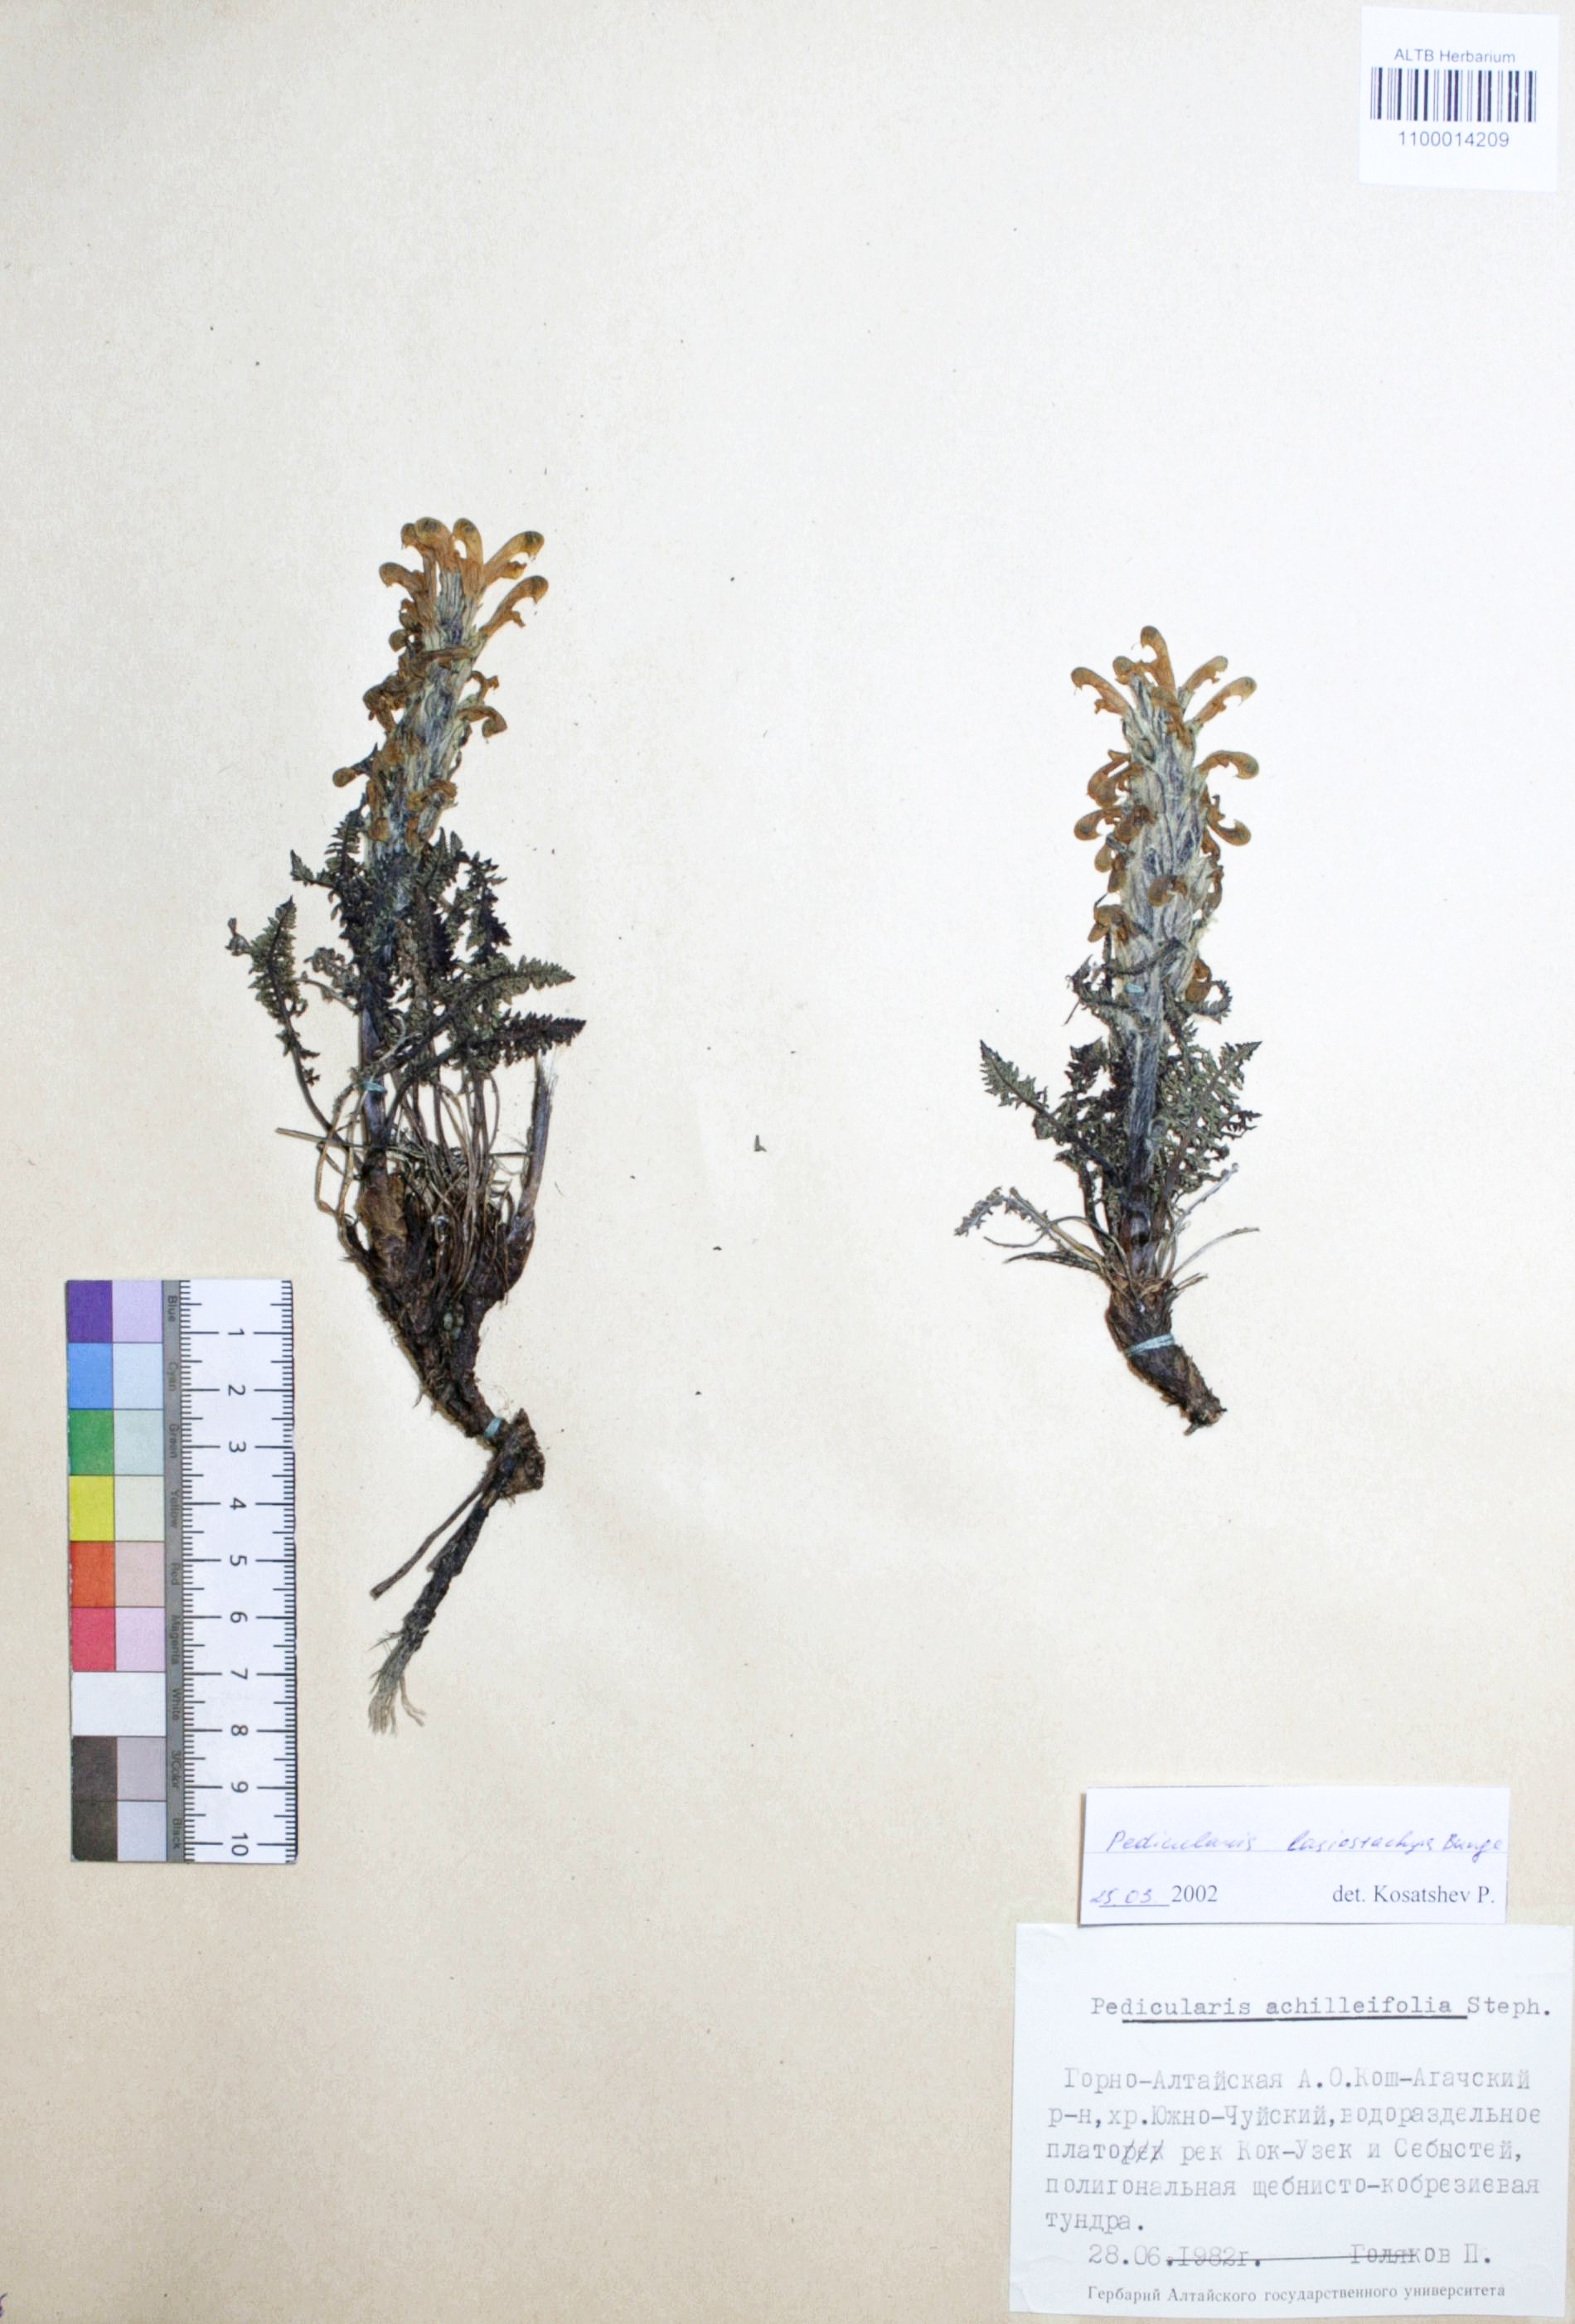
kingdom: Plantae
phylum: Tracheophyta
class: Magnoliopsida
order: Lamiales
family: Orobanchaceae
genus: Pedicularis
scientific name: Pedicularis lasiostachys
